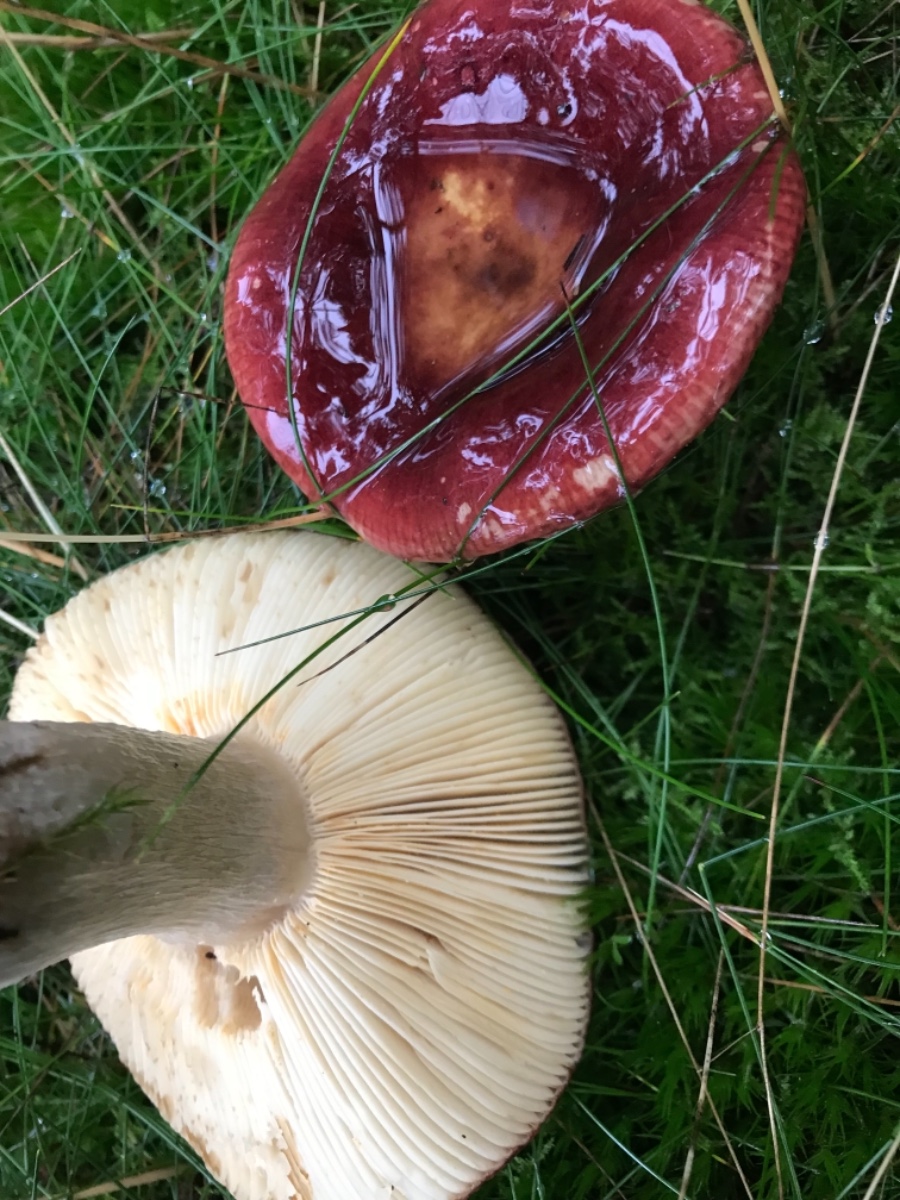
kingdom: Fungi
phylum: Basidiomycota
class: Agaricomycetes
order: Russulales
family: Russulaceae
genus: Russula
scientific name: Russula
